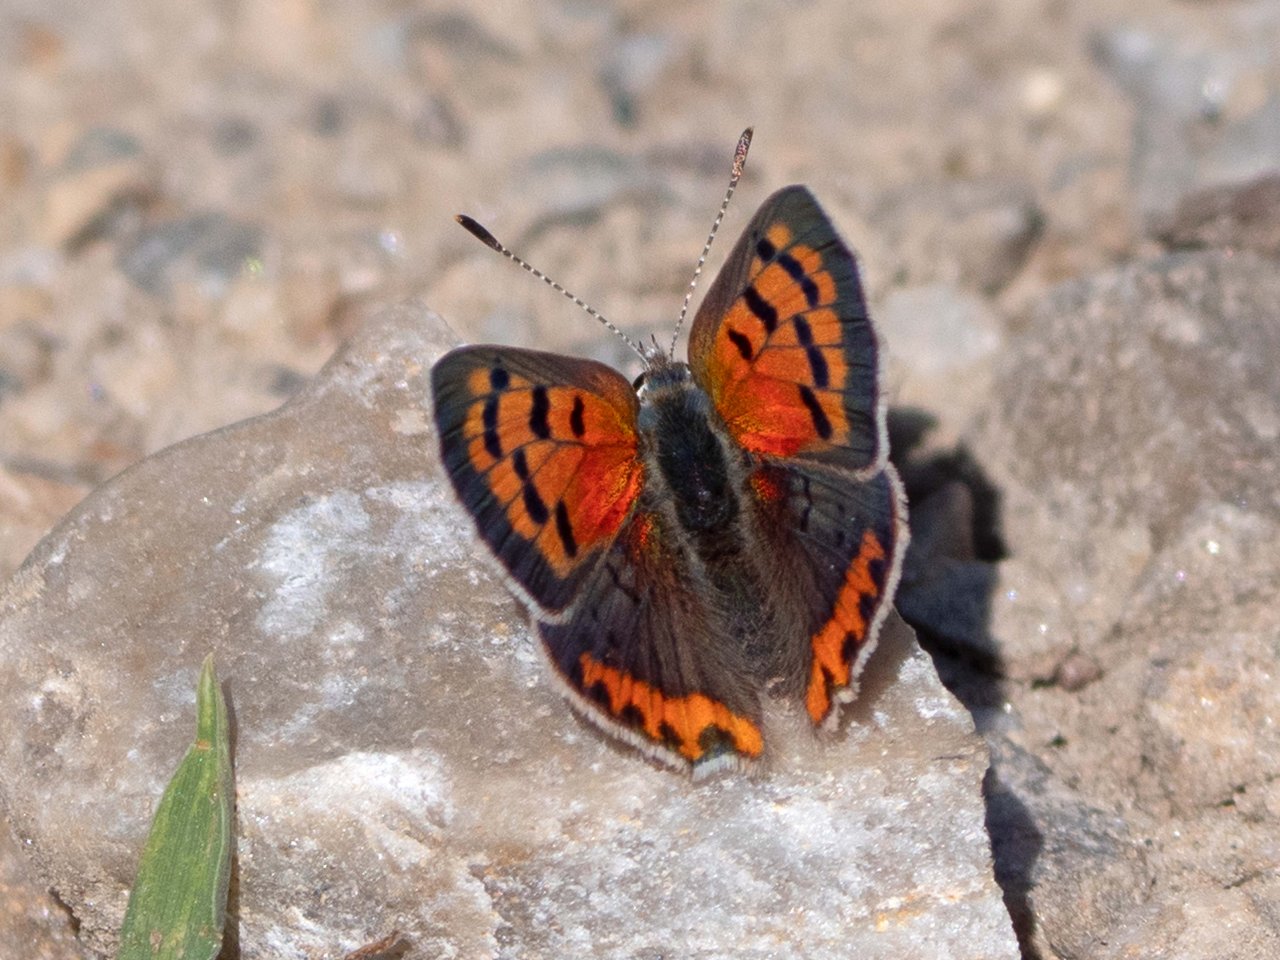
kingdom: Animalia
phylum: Arthropoda
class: Insecta
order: Lepidoptera
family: Lycaenidae
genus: Lycaena
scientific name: Lycaena phlaeas
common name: American Copper
